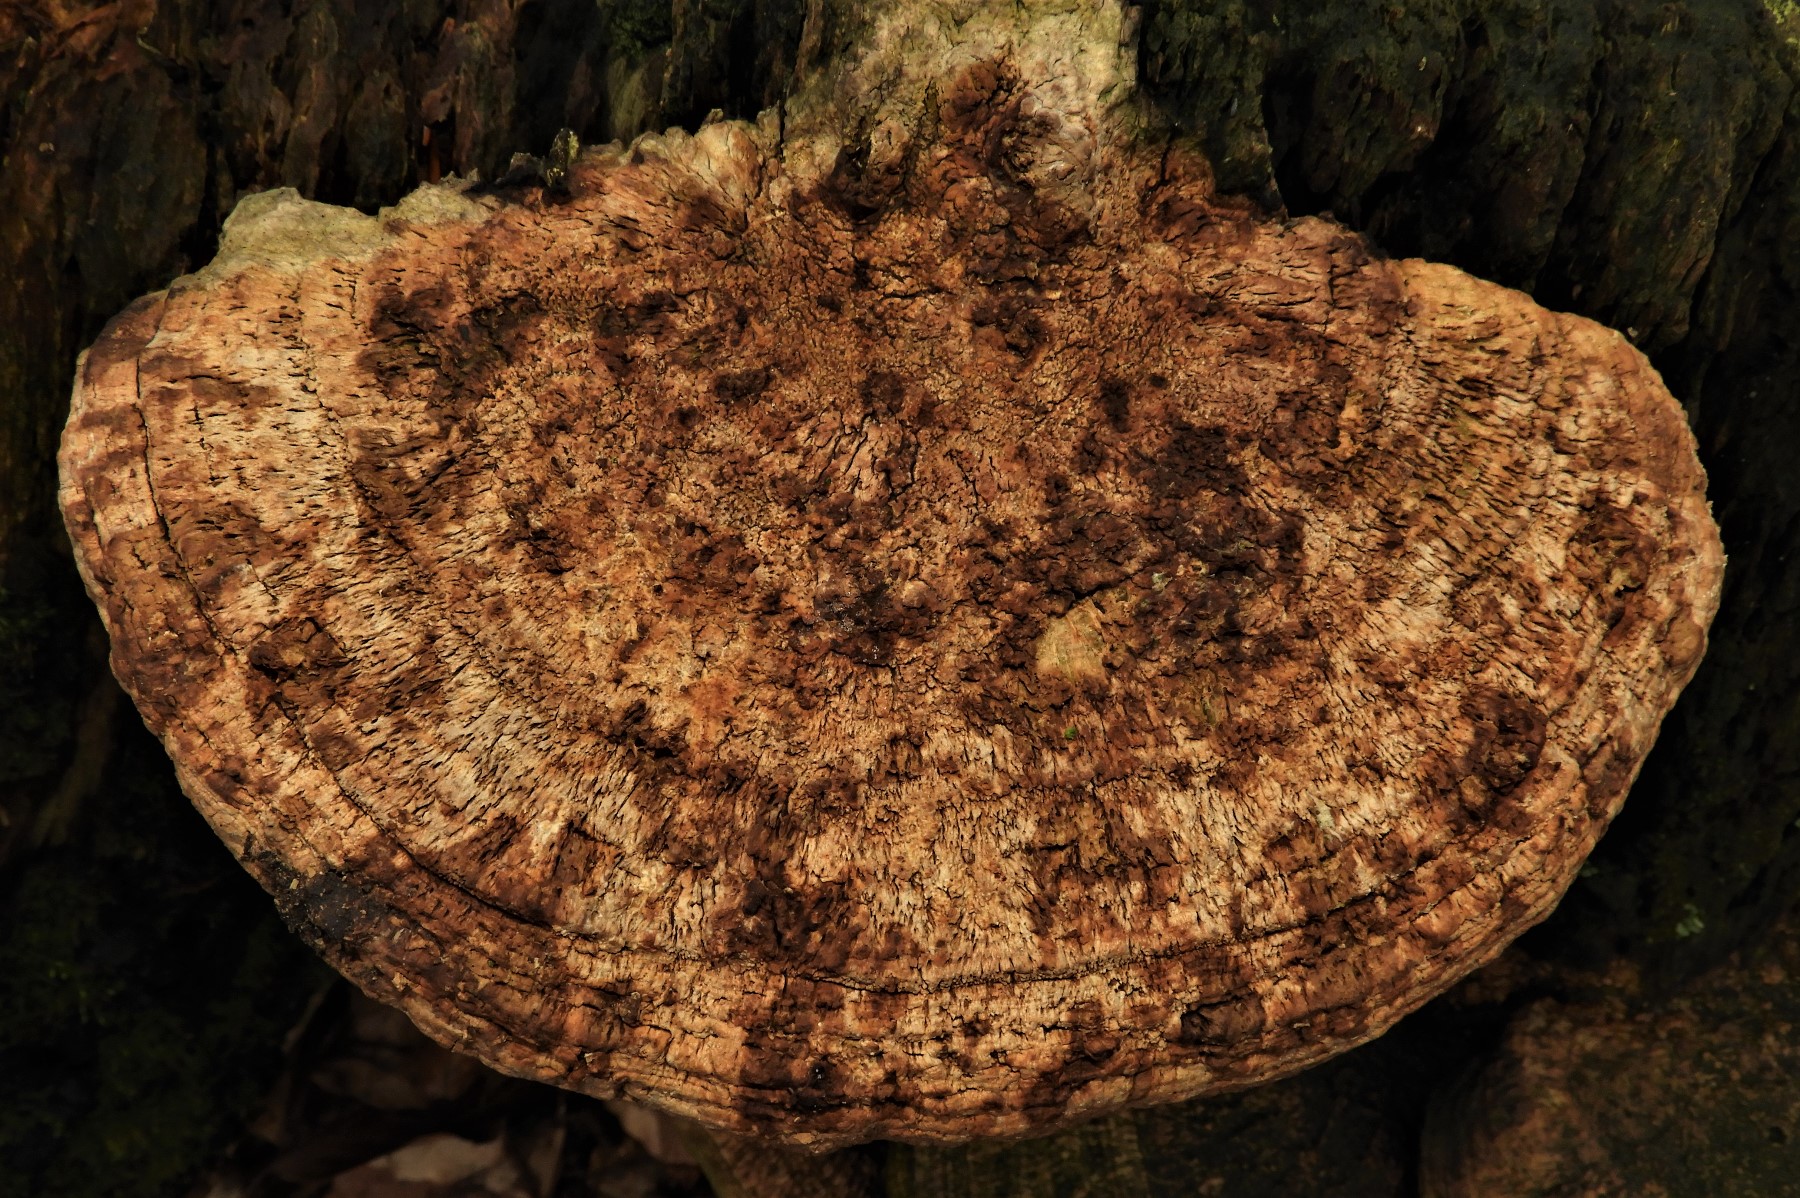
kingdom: Fungi
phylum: Basidiomycota
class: Agaricomycetes
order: Polyporales
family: Fomitopsidaceae
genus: Daedalea
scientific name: Daedalea quercina
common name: ege-labyrintsvamp
